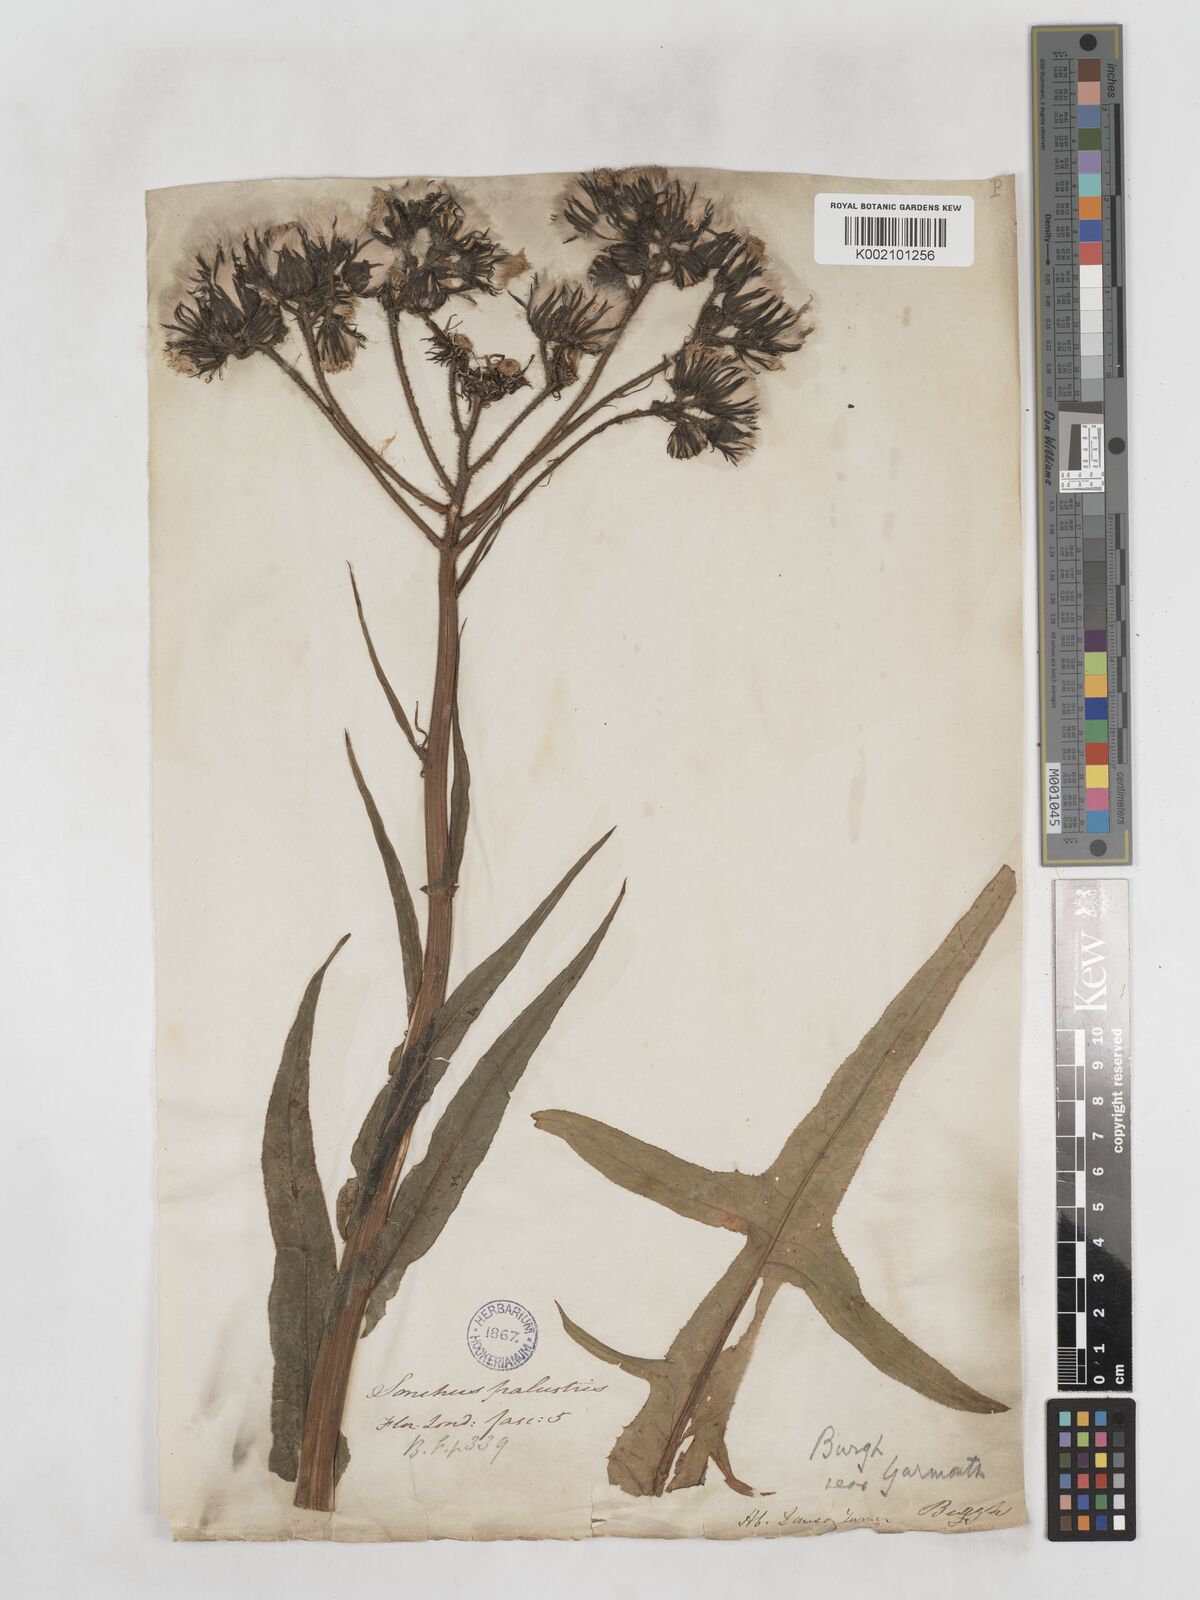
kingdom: Plantae
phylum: Tracheophyta
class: Magnoliopsida
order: Asterales
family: Asteraceae
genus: Sonchus
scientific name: Sonchus palustris
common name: Marsh sow-thistle
